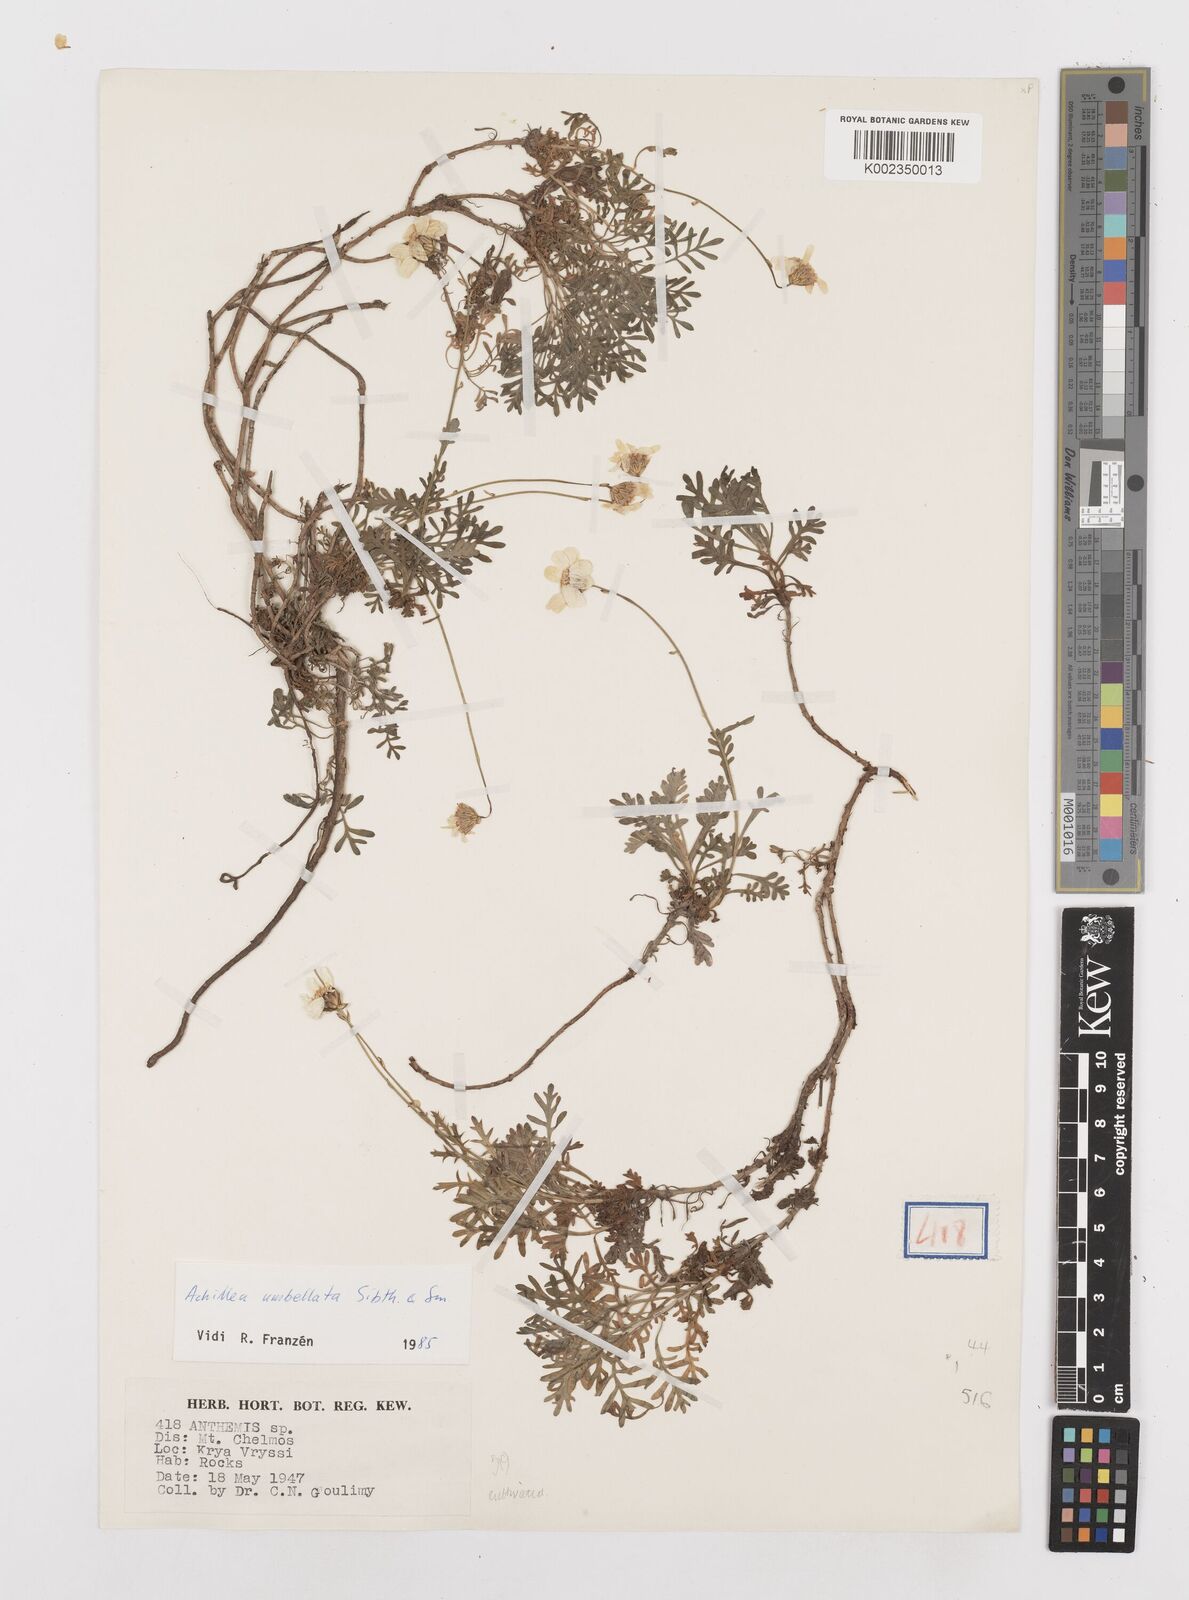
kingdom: Plantae
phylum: Tracheophyta
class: Magnoliopsida
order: Asterales
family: Asteraceae
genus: Achillea
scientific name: Achillea umbellata
